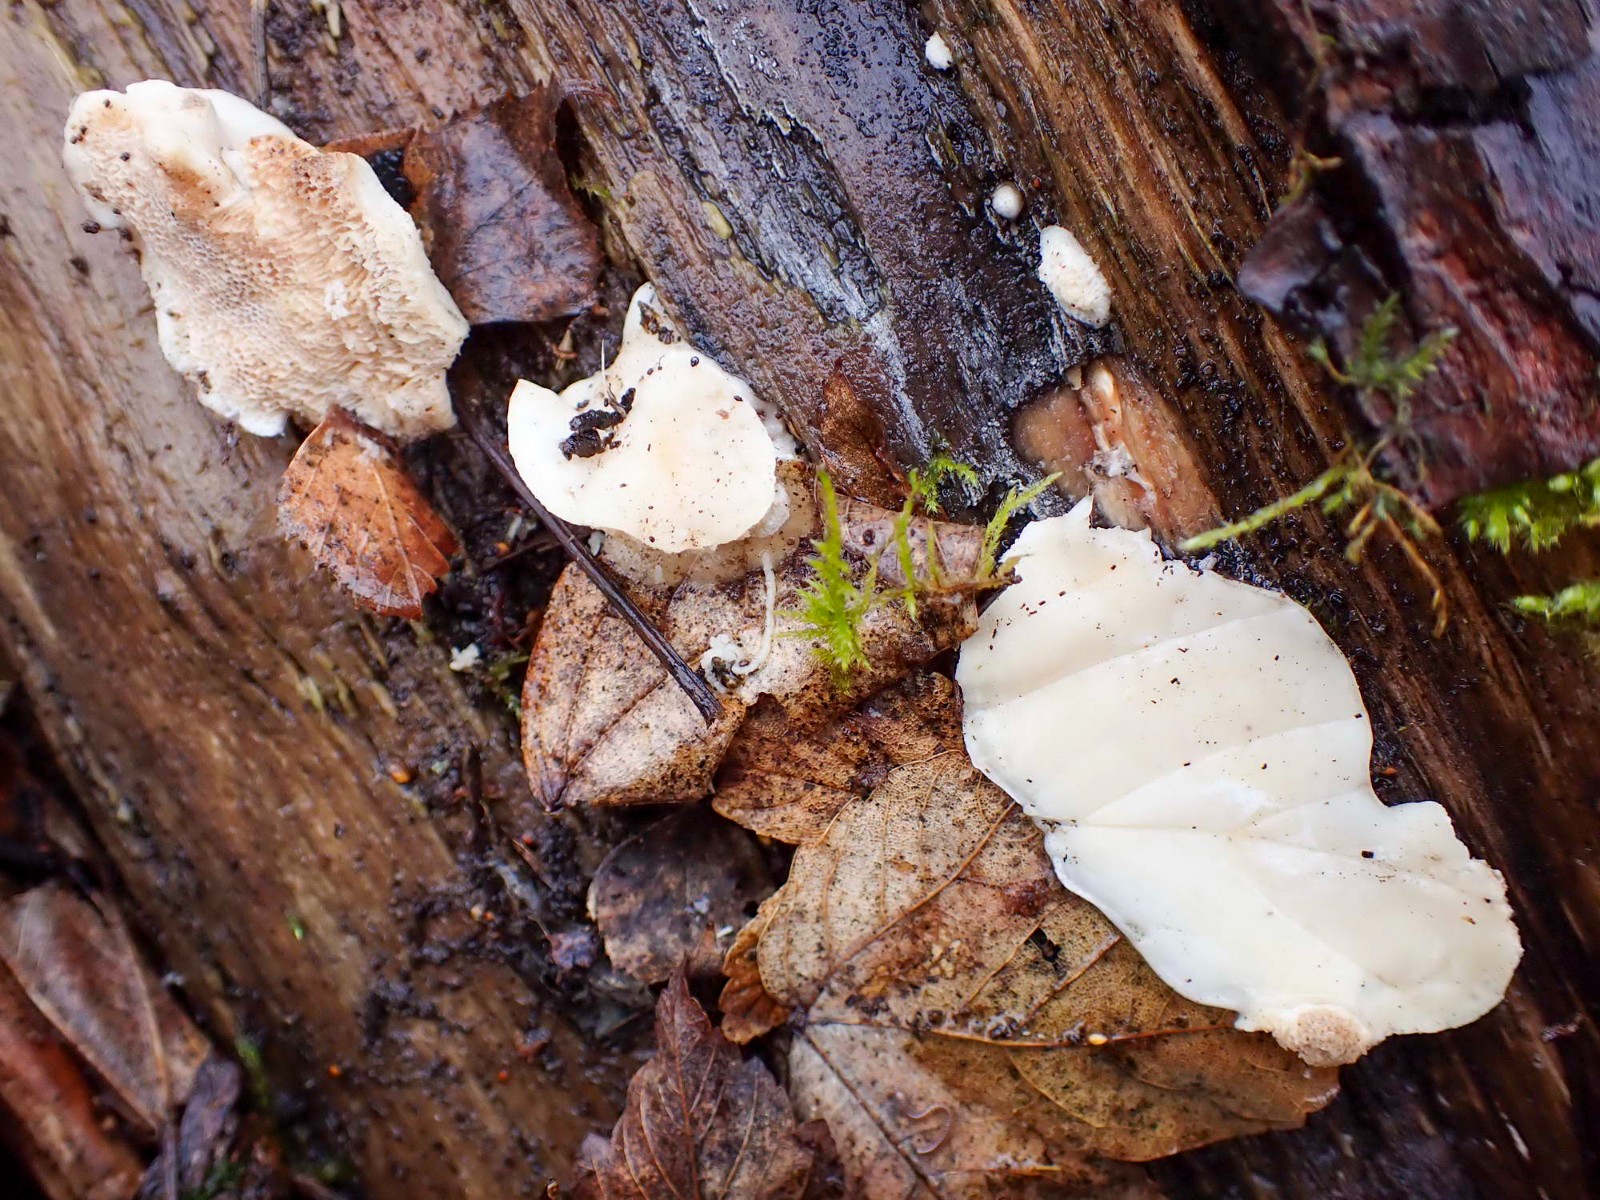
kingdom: Fungi
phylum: Basidiomycota
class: Agaricomycetes
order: Polyporales
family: Polyporaceae
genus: Trametes
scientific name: Trametes suaveolens
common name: vellugtende læderporesvamp
